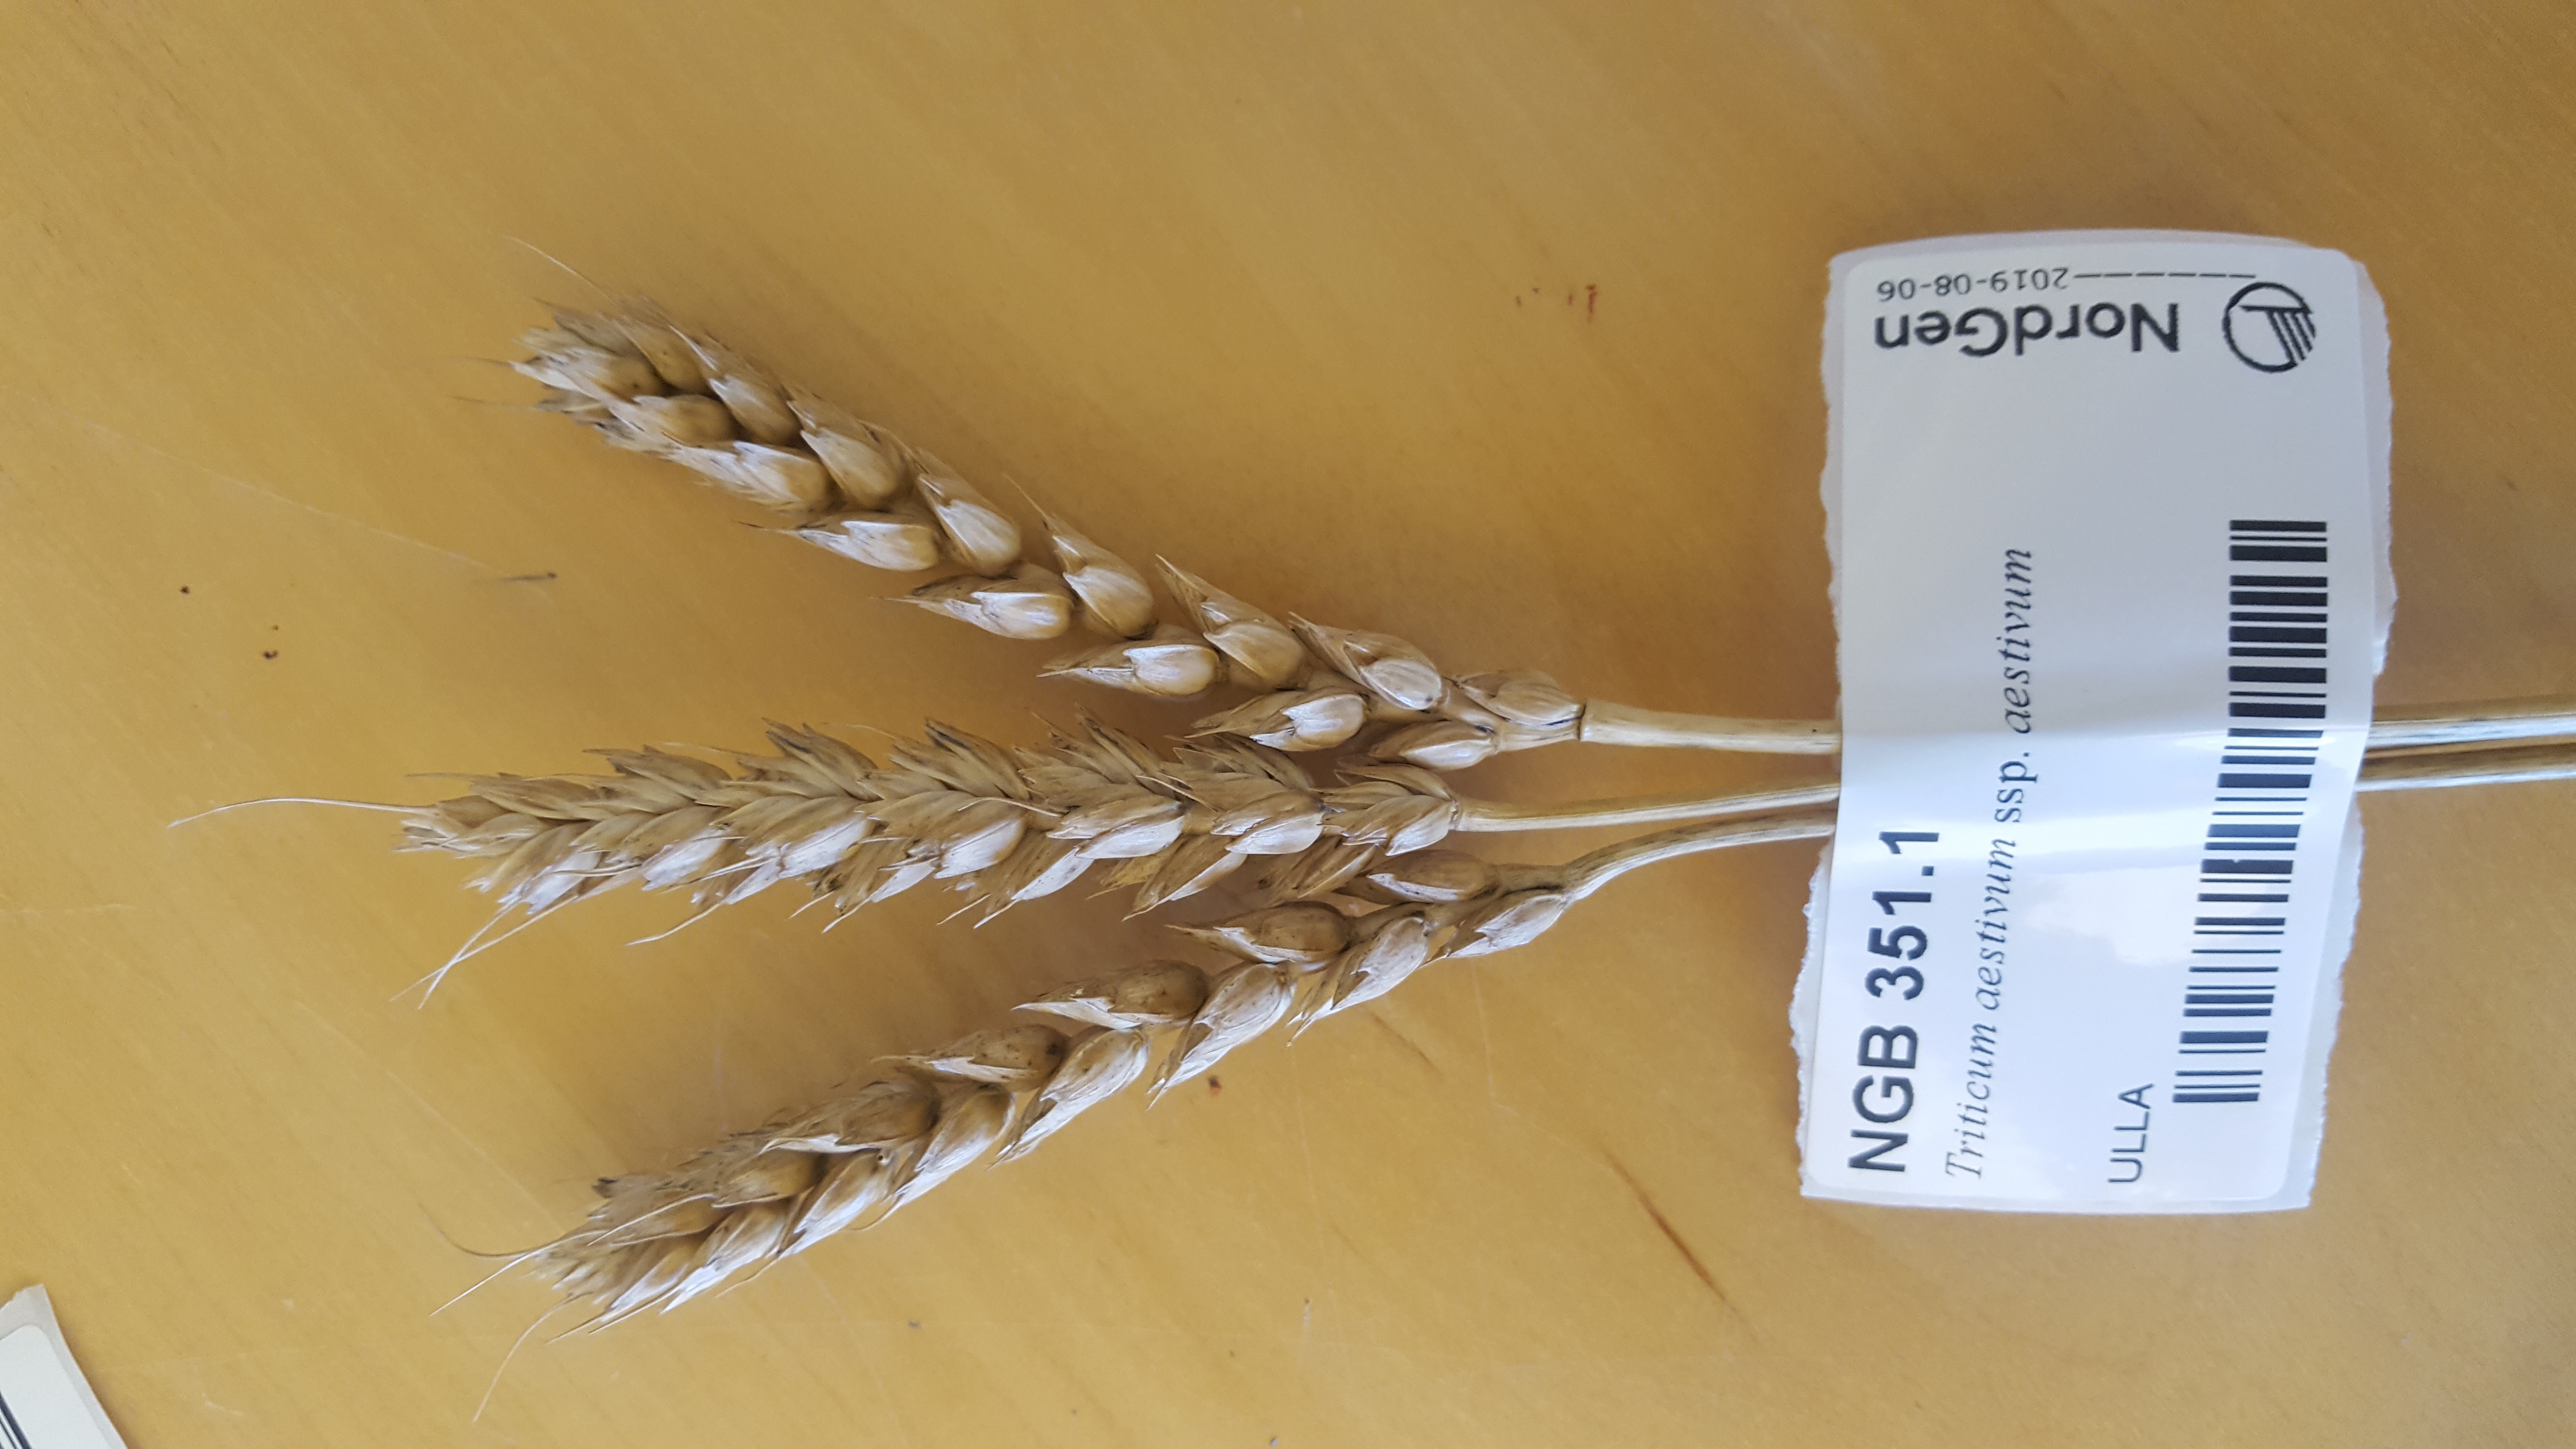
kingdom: Plantae
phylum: Tracheophyta
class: Liliopsida
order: Poales
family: Poaceae
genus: Triticum
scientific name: Triticum aestivum
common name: Common wheat
